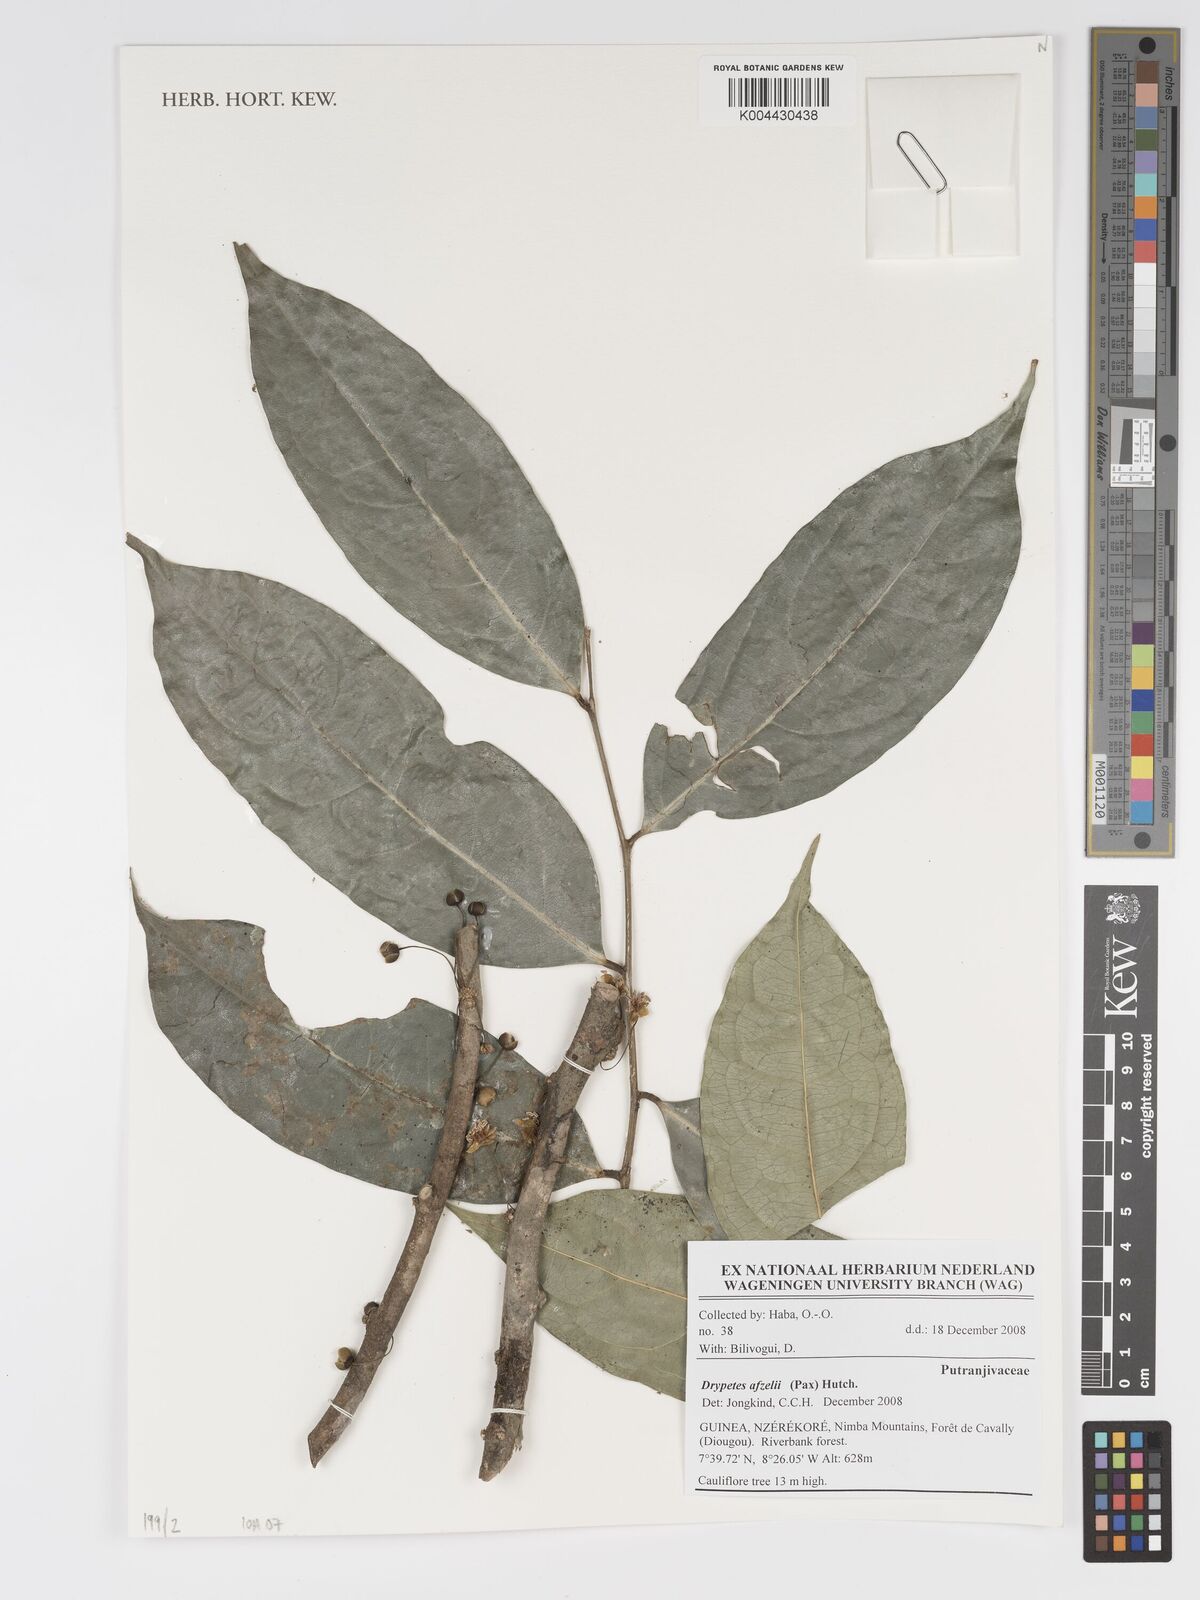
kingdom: Plantae
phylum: Tracheophyta
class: Magnoliopsida
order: Malpighiales
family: Putranjivaceae
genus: Drypetes
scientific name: Drypetes afzelii
